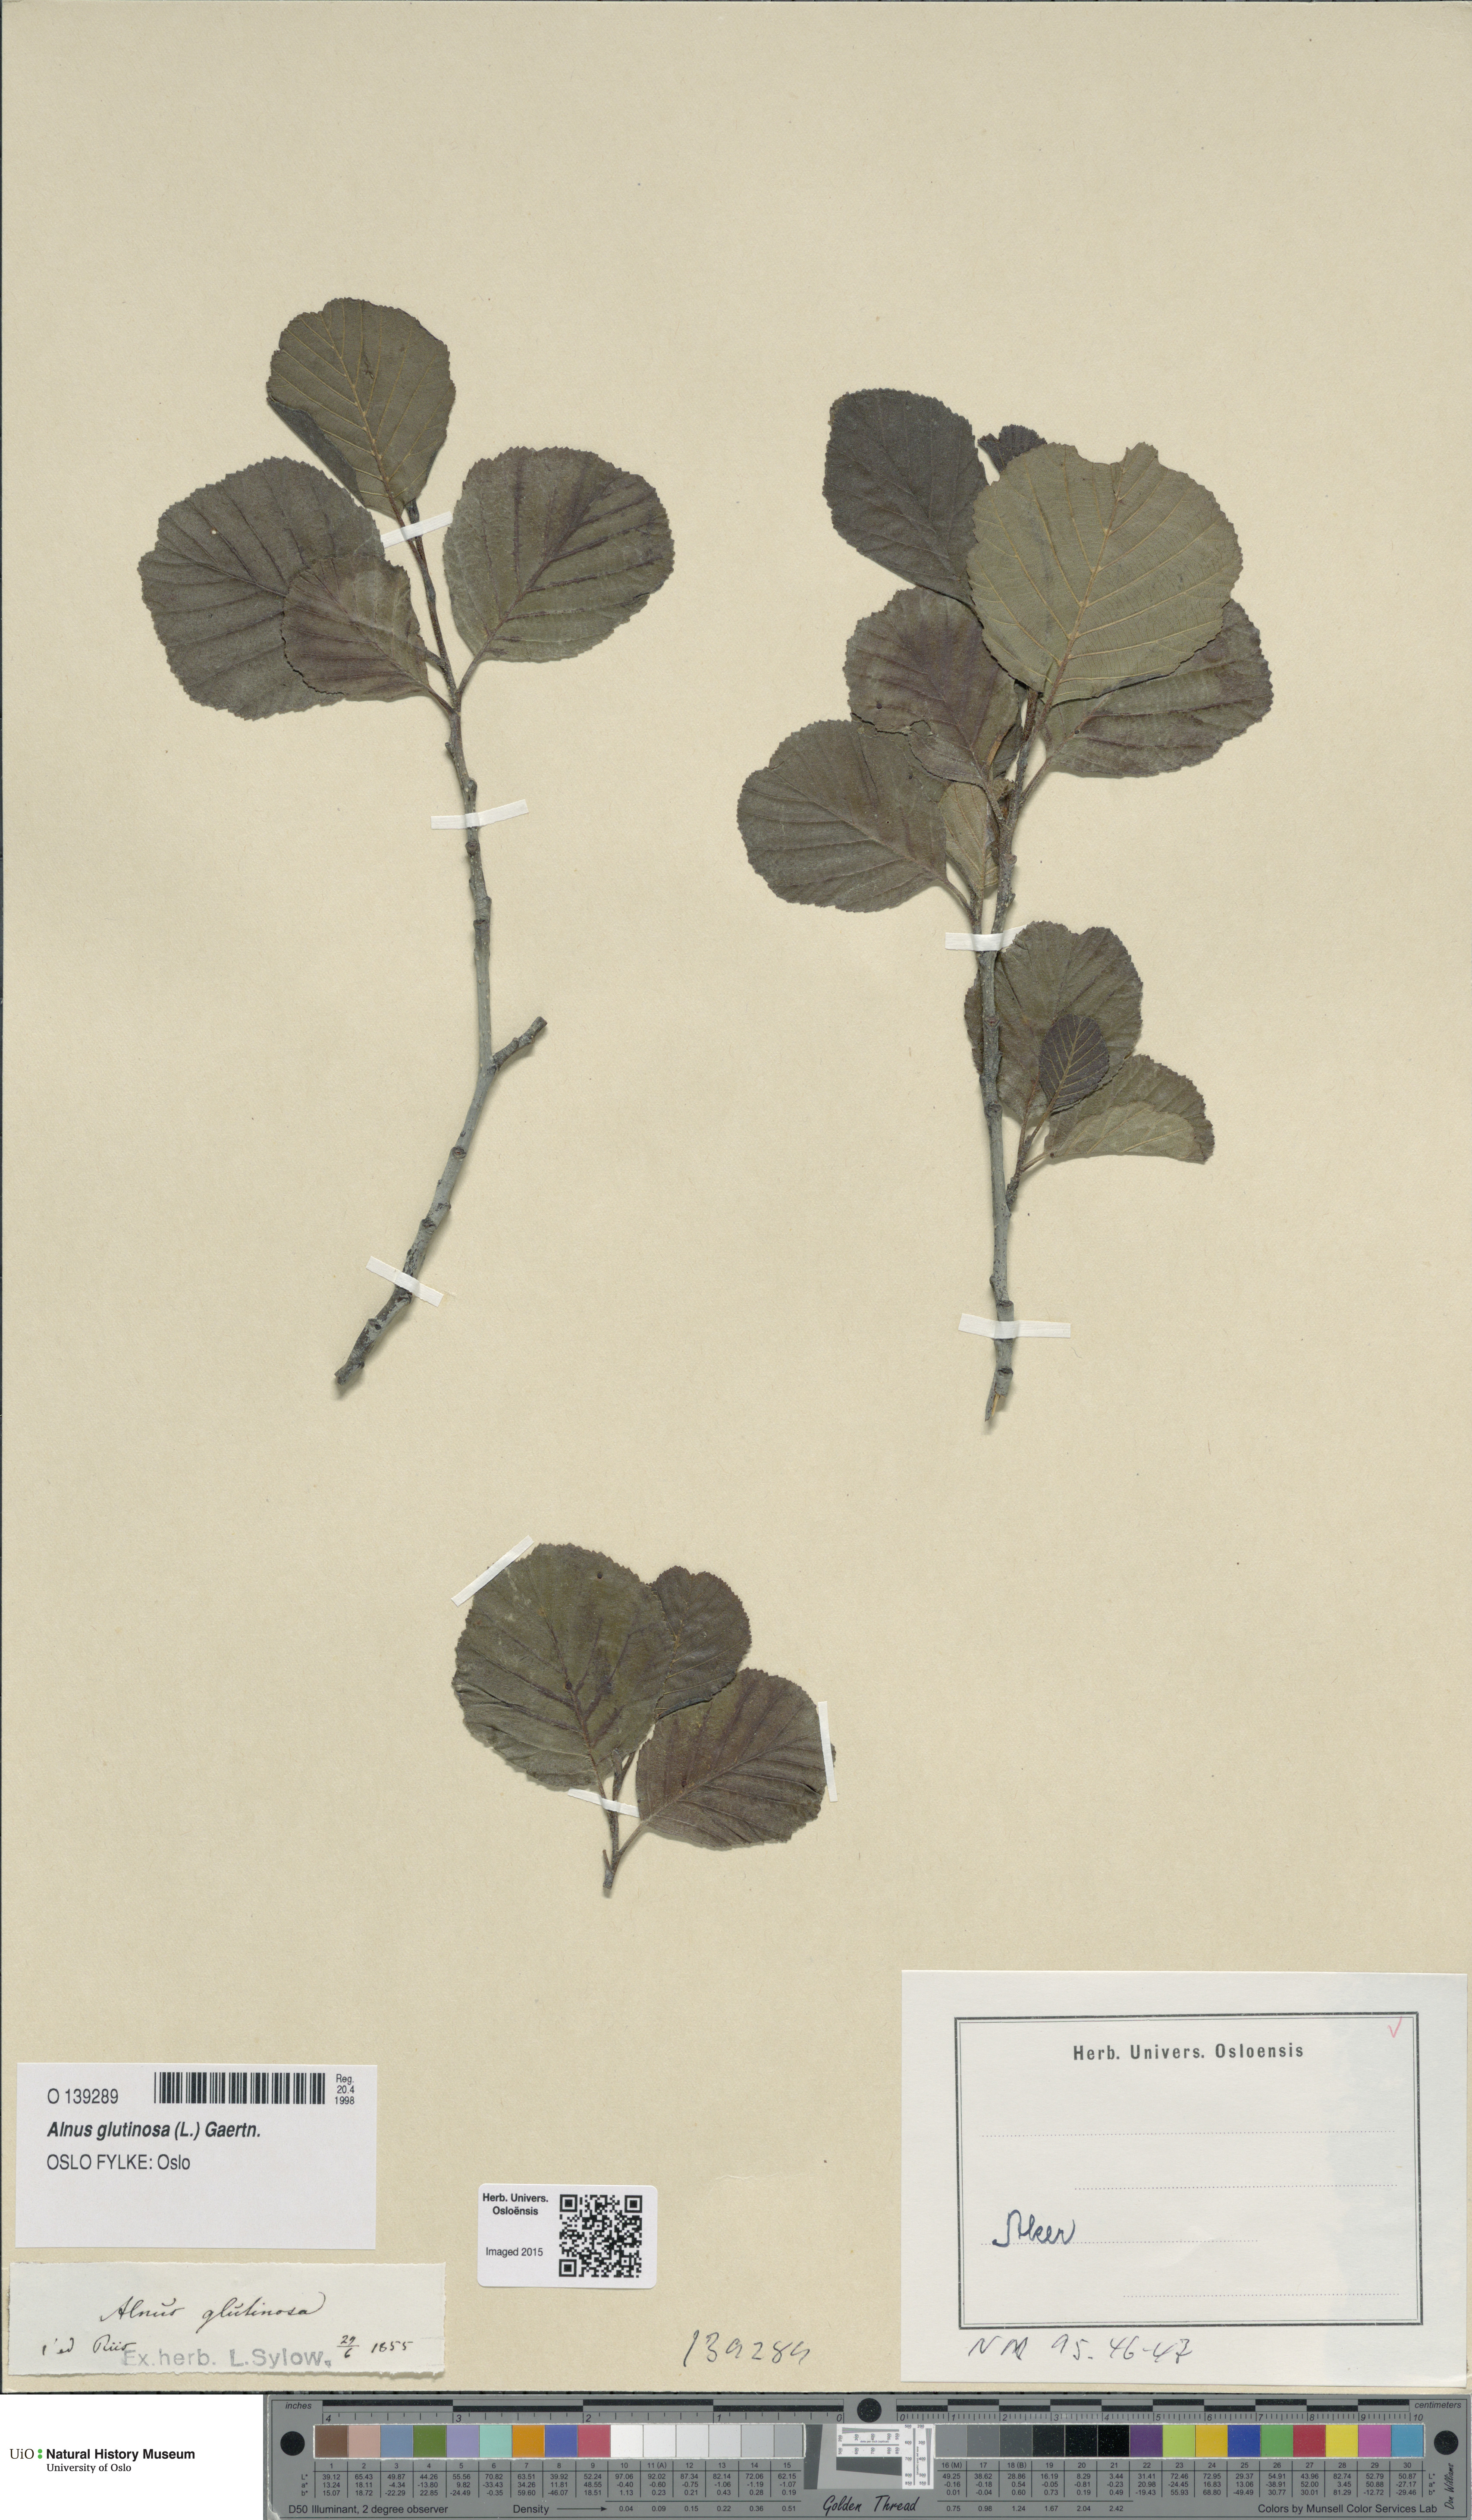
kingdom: Plantae
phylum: Tracheophyta
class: Magnoliopsida
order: Fagales
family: Betulaceae
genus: Alnus
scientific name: Alnus glutinosa
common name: Black alder
